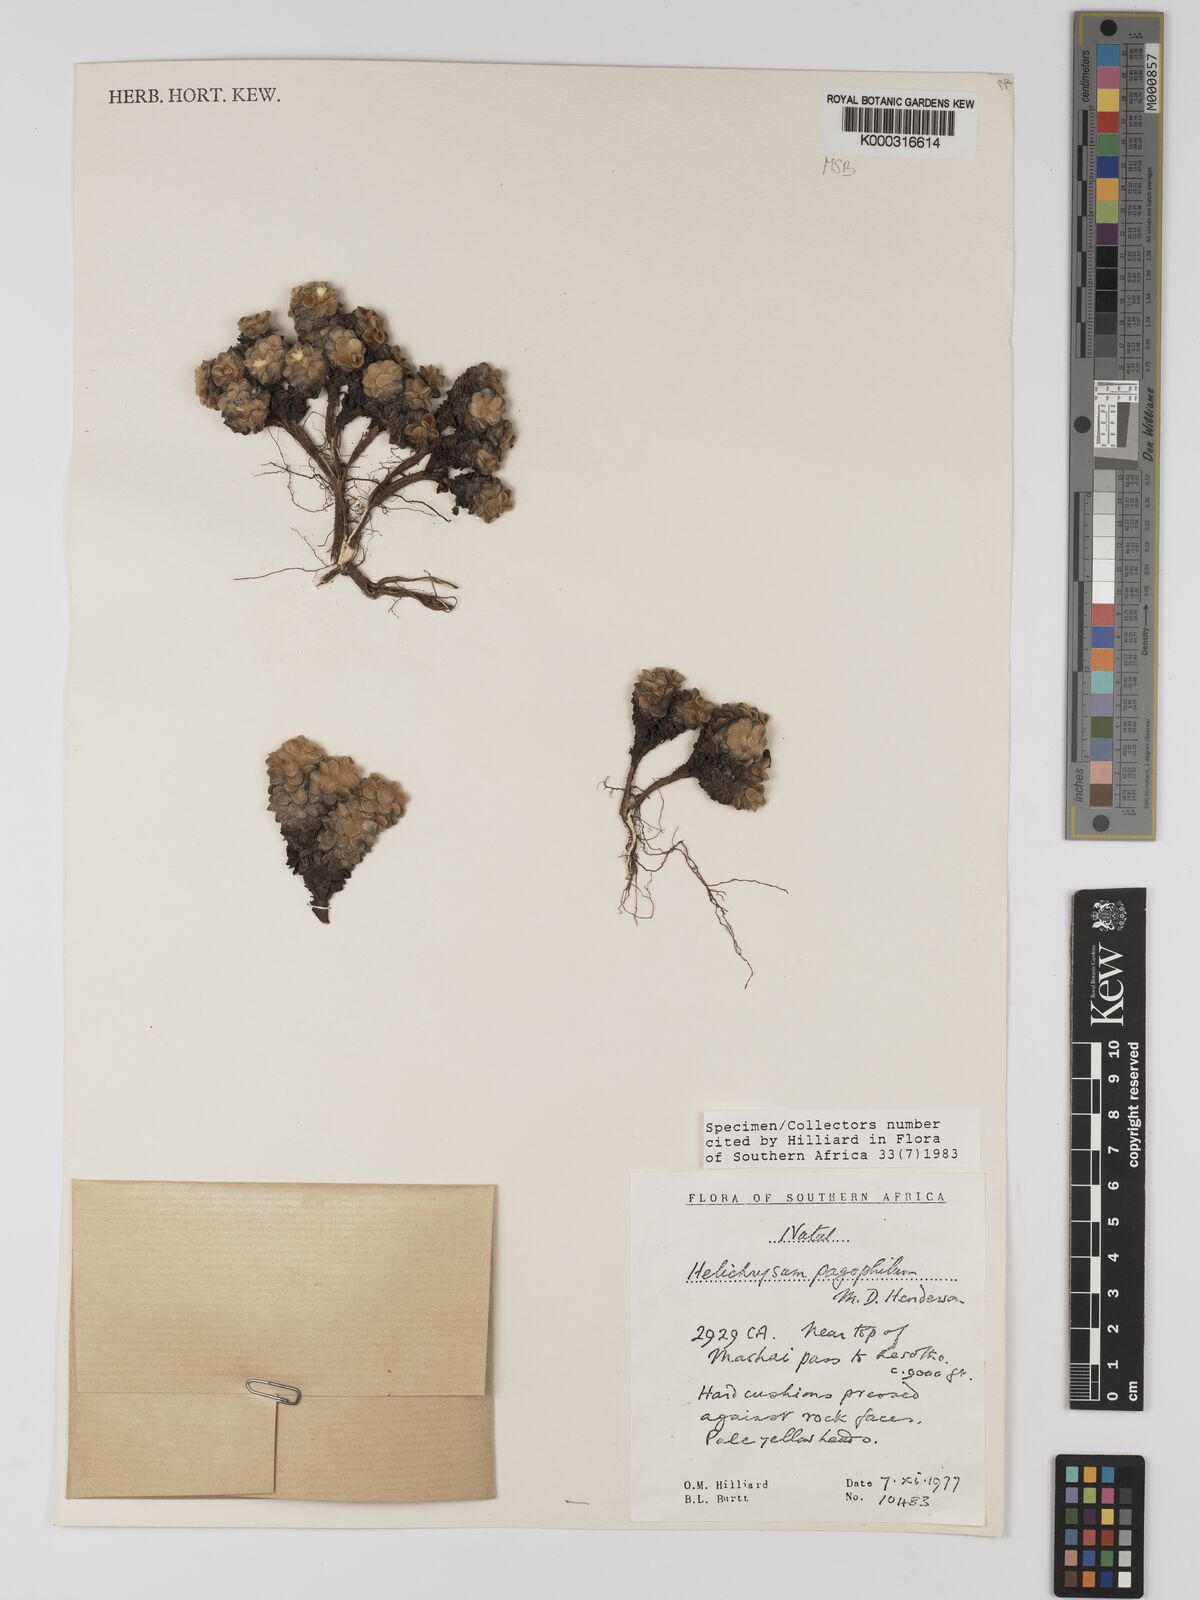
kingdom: Plantae
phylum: Tracheophyta
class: Magnoliopsida
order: Asterales
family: Asteraceae
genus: Helichrysum
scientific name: Helichrysum pagophilum
